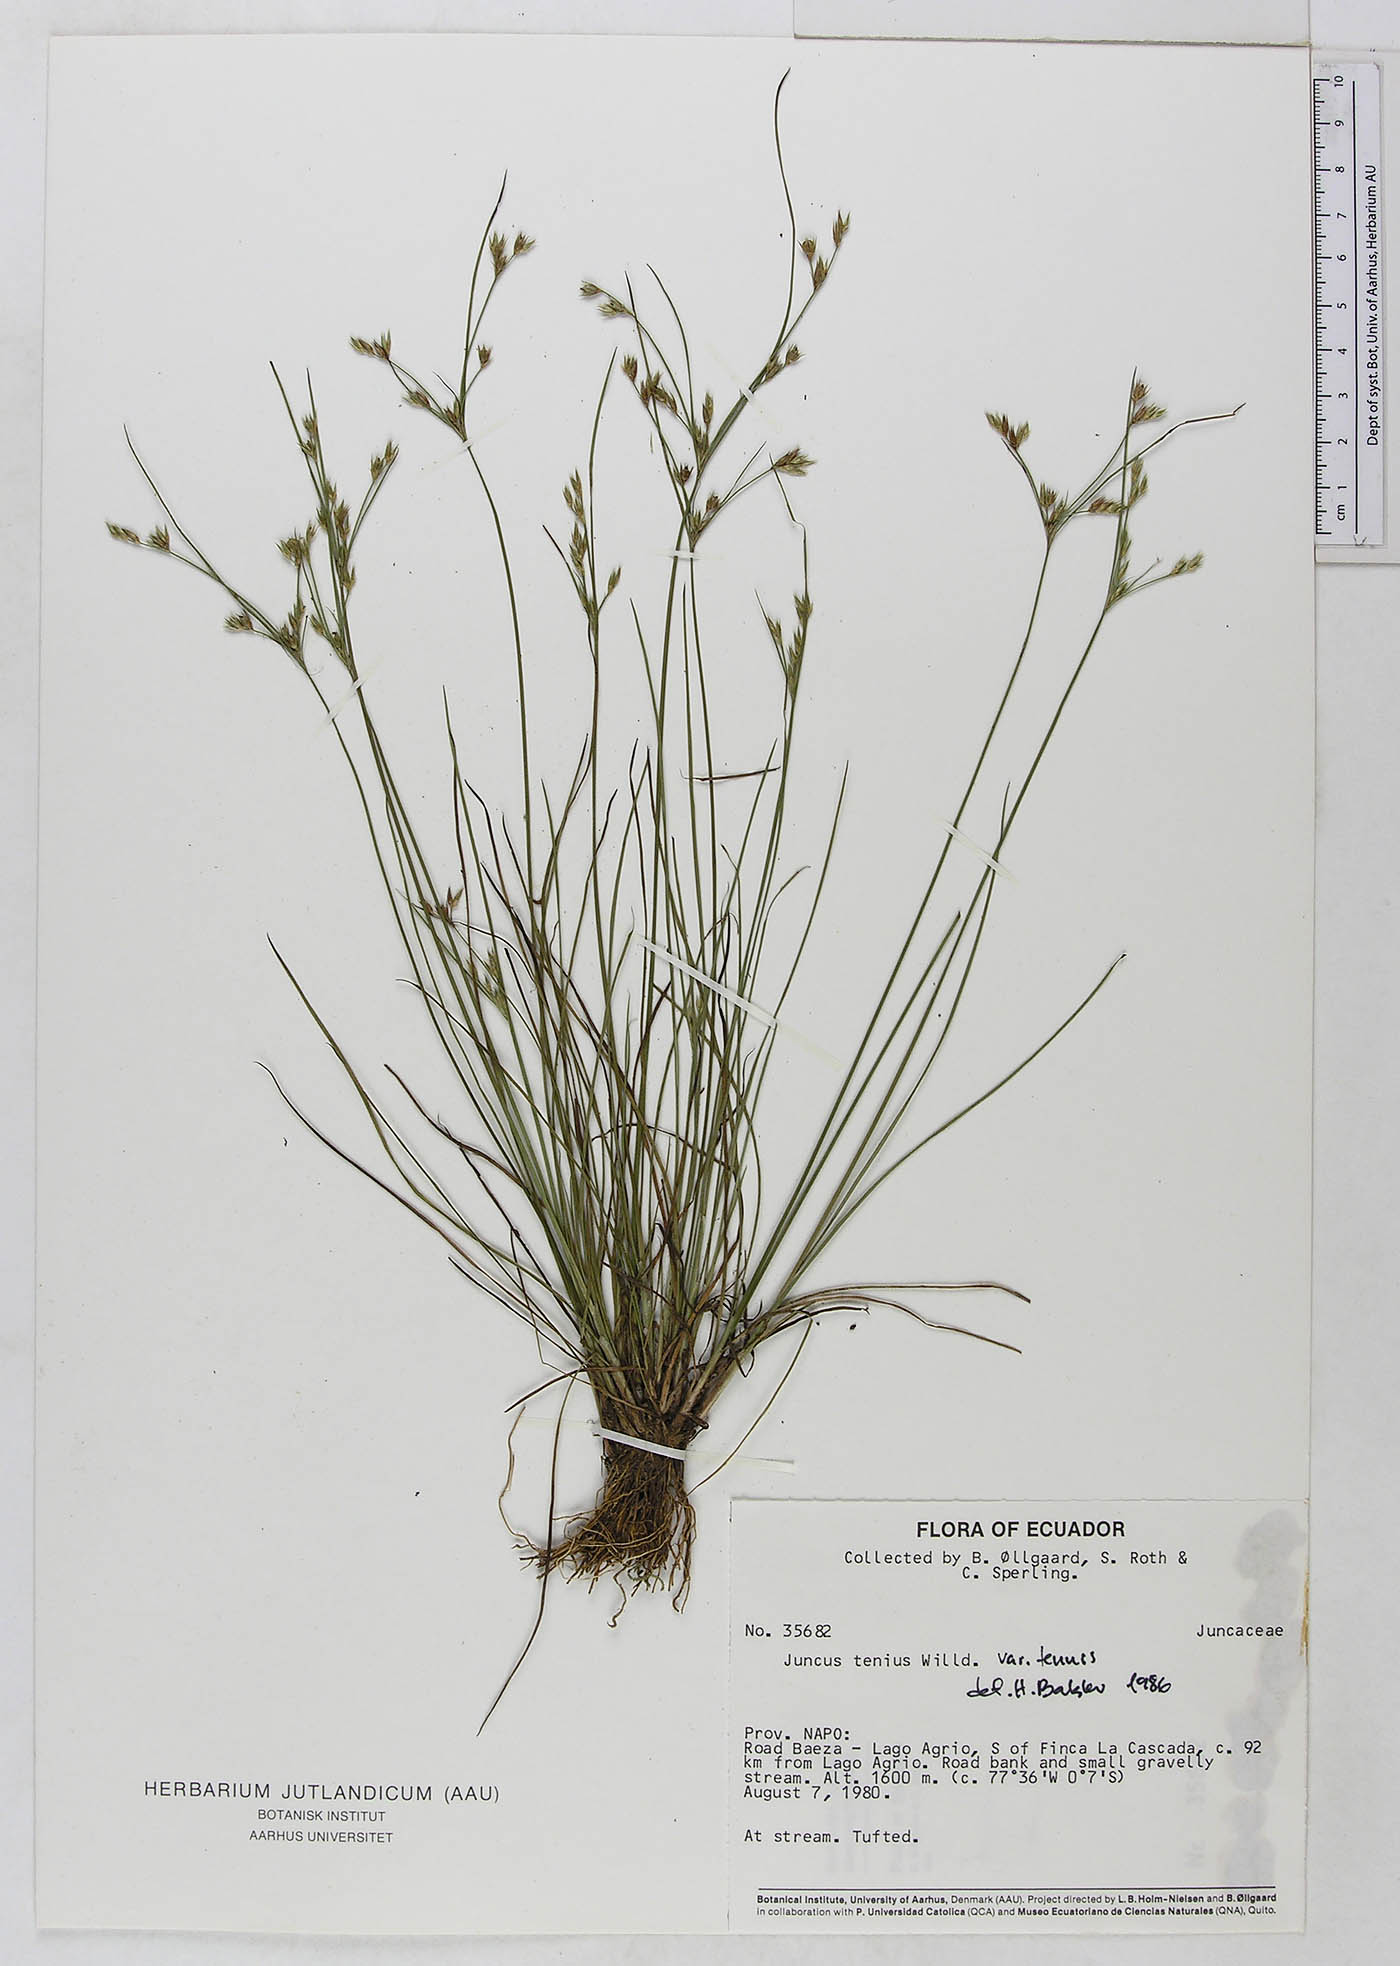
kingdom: Plantae
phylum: Tracheophyta
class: Liliopsida
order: Poales
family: Juncaceae
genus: Juncus
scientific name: Juncus tenuis
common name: Slender rush
